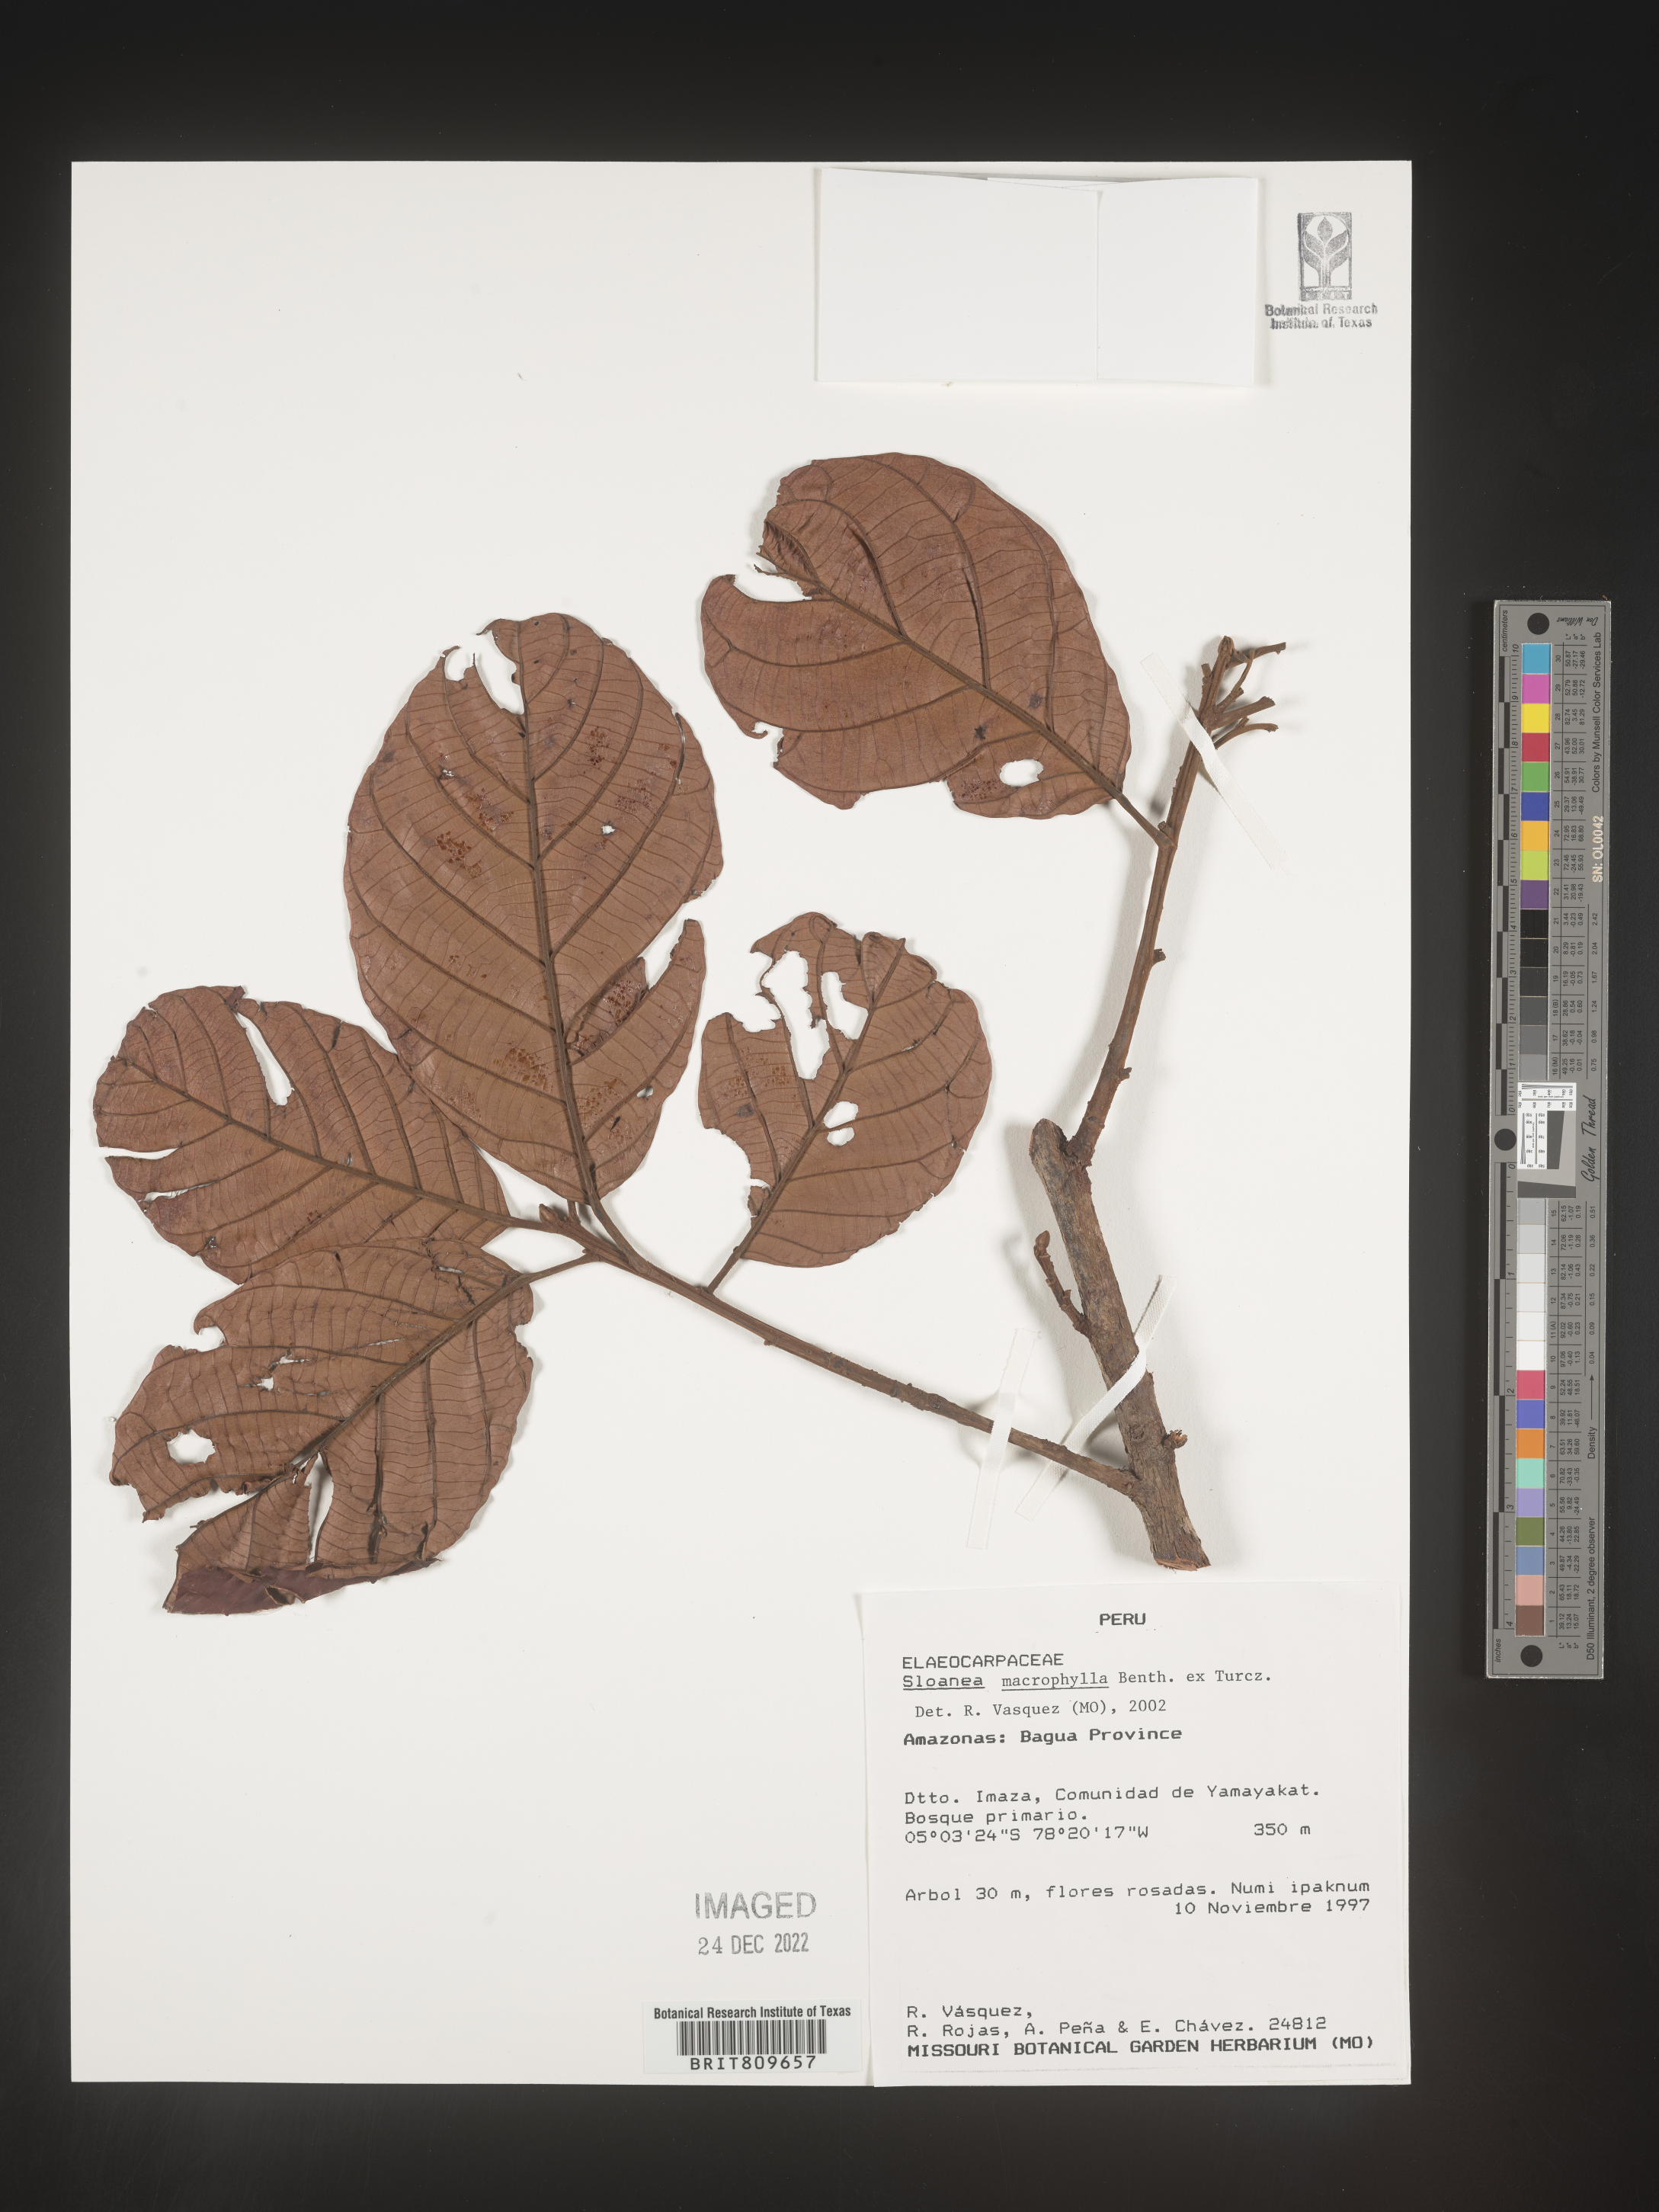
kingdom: Plantae
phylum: Tracheophyta
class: Magnoliopsida
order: Oxalidales
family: Elaeocarpaceae
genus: Sloanea
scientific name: Sloanea
